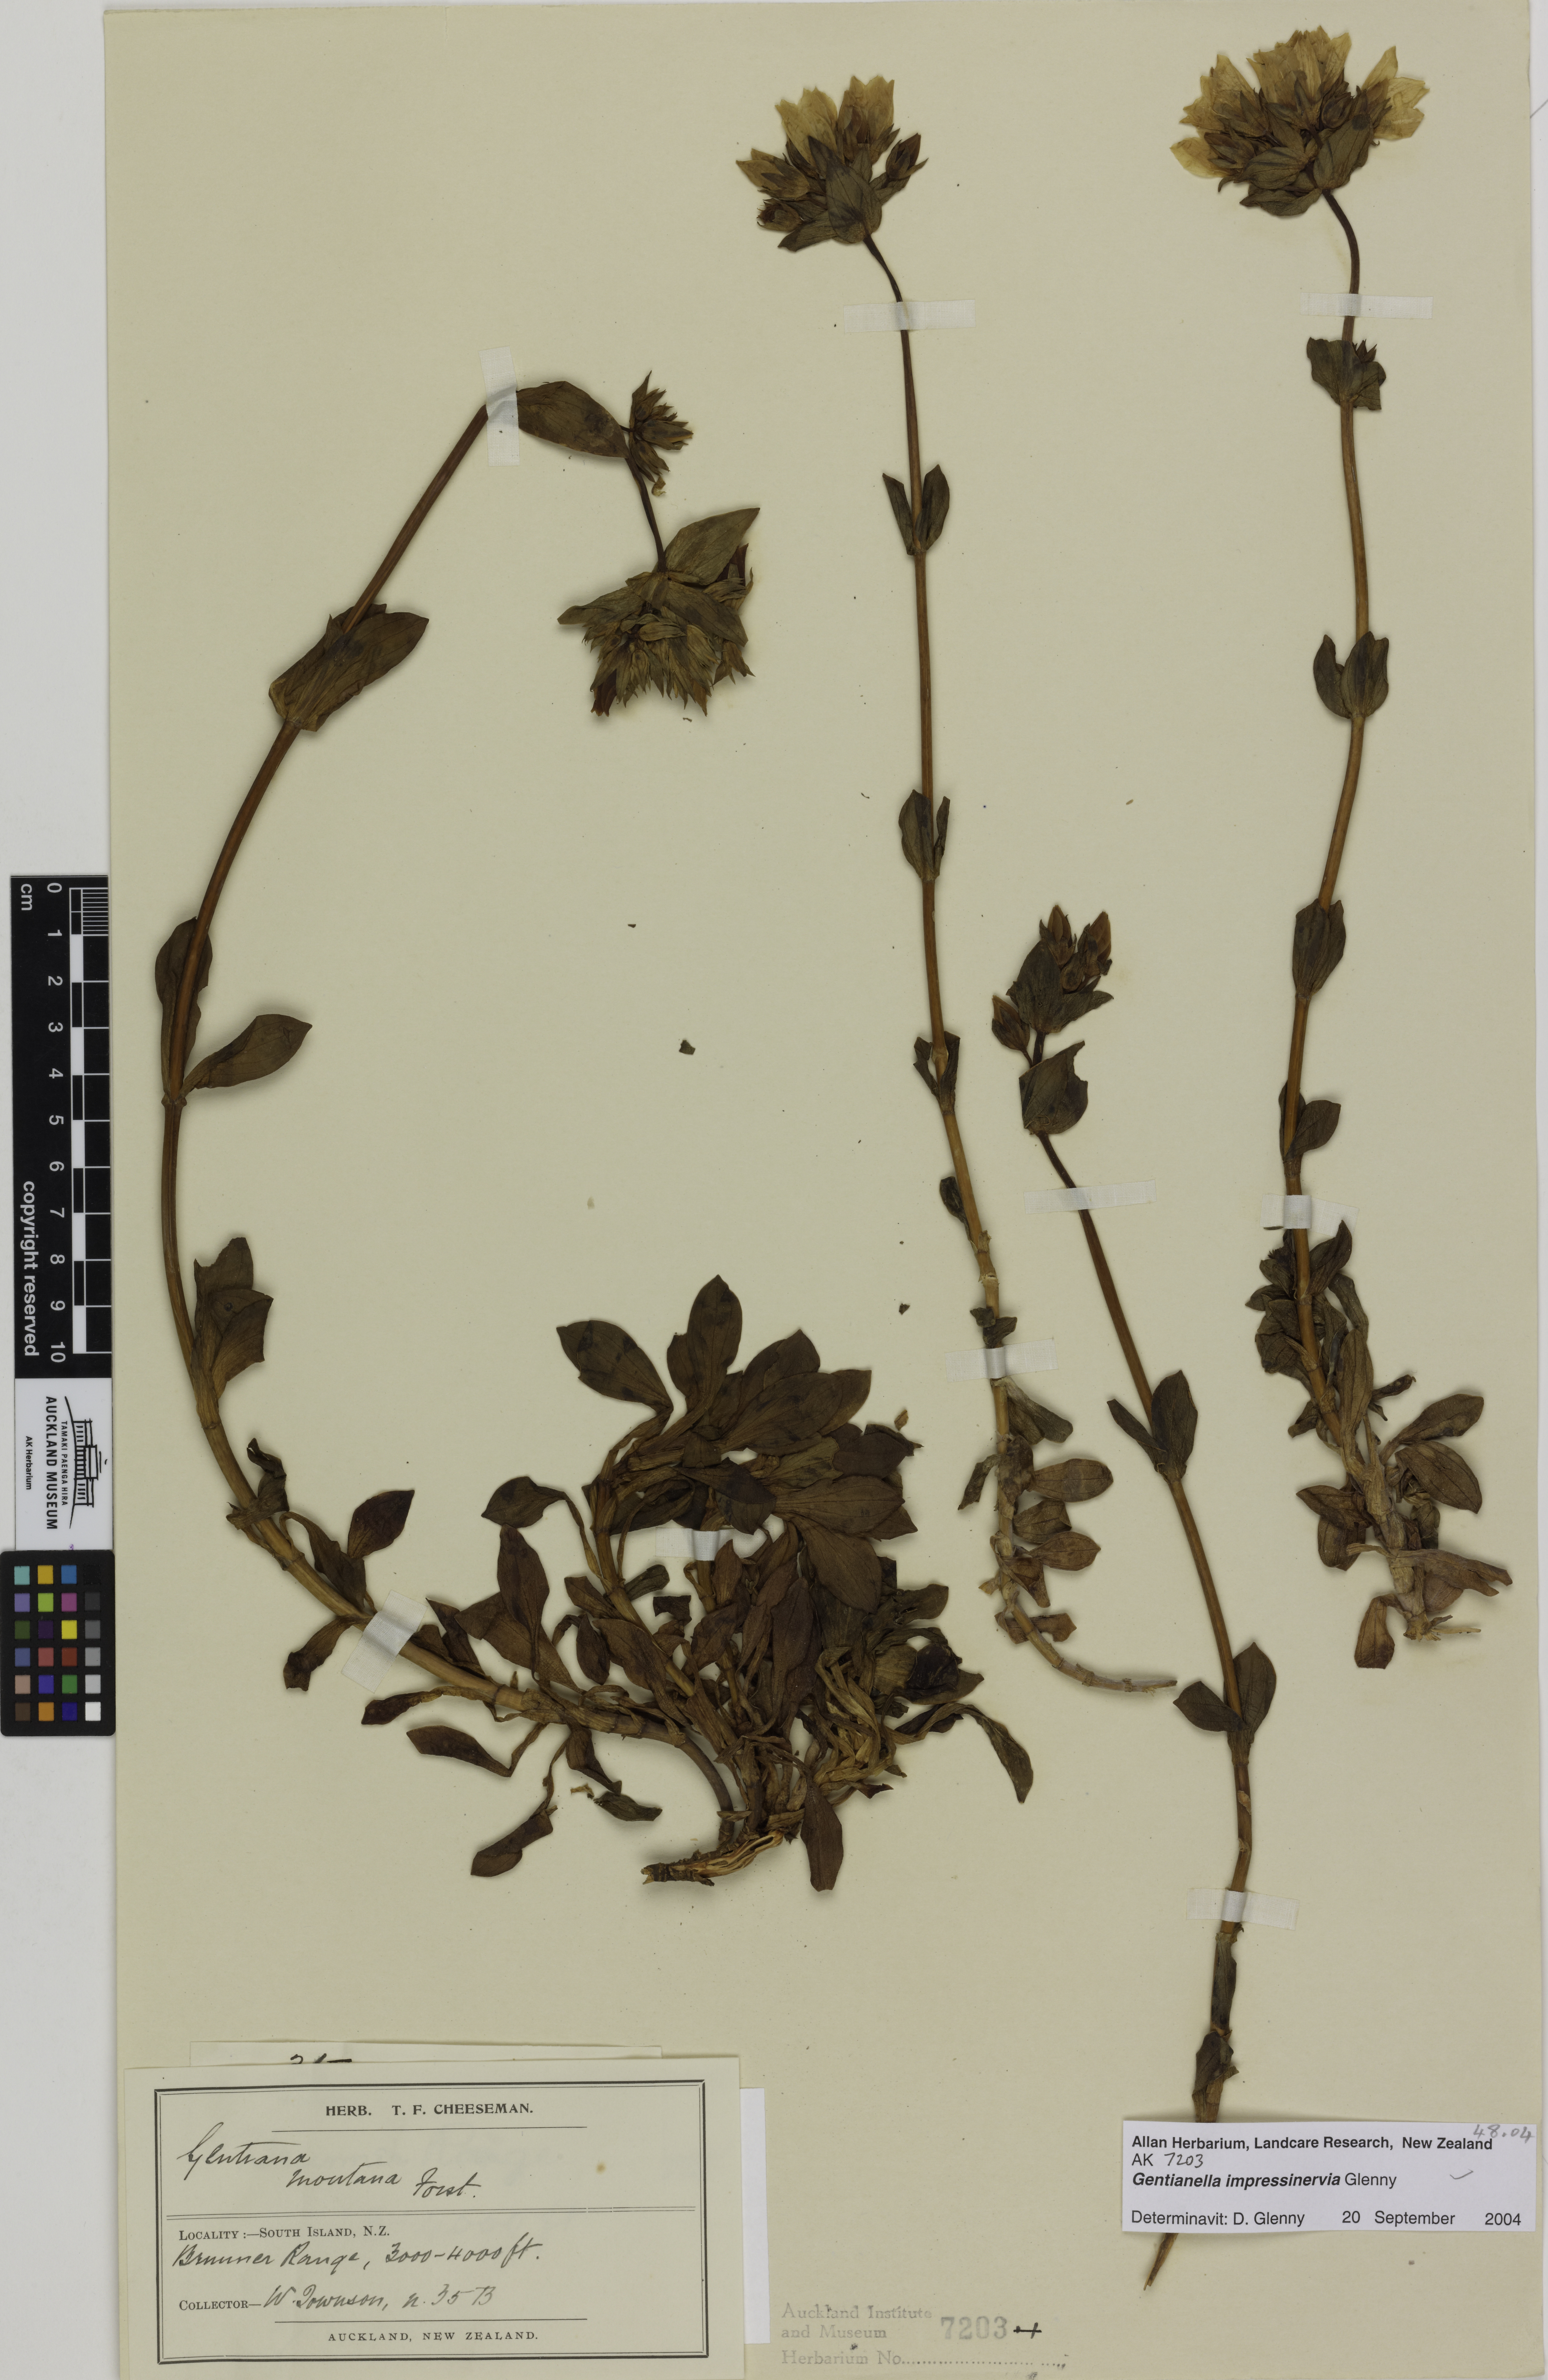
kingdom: Plantae
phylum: Tracheophyta
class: Magnoliopsida
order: Gentianales
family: Gentianaceae
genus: Gentianella
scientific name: Gentianella impressinervia
